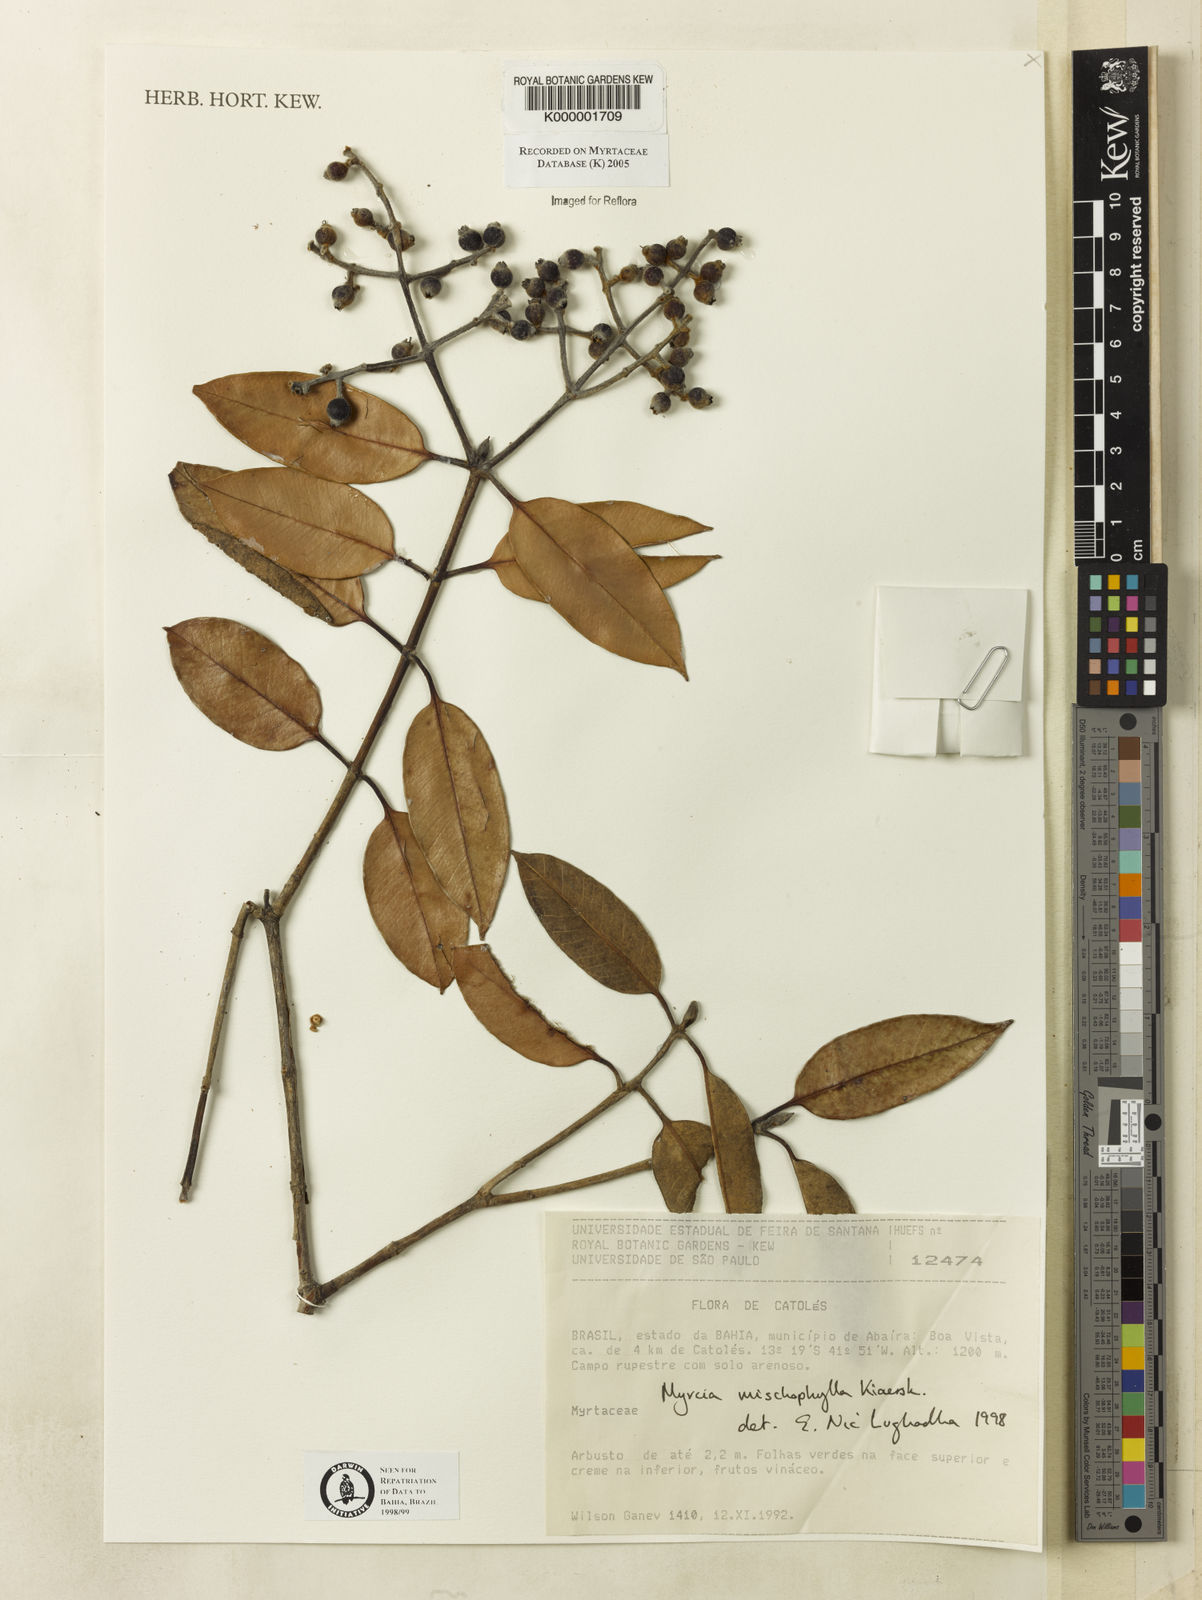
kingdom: Plantae
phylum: Tracheophyta
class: Magnoliopsida
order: Myrtales
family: Myrtaceae
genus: Myrcia
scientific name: Myrcia mischophylla
